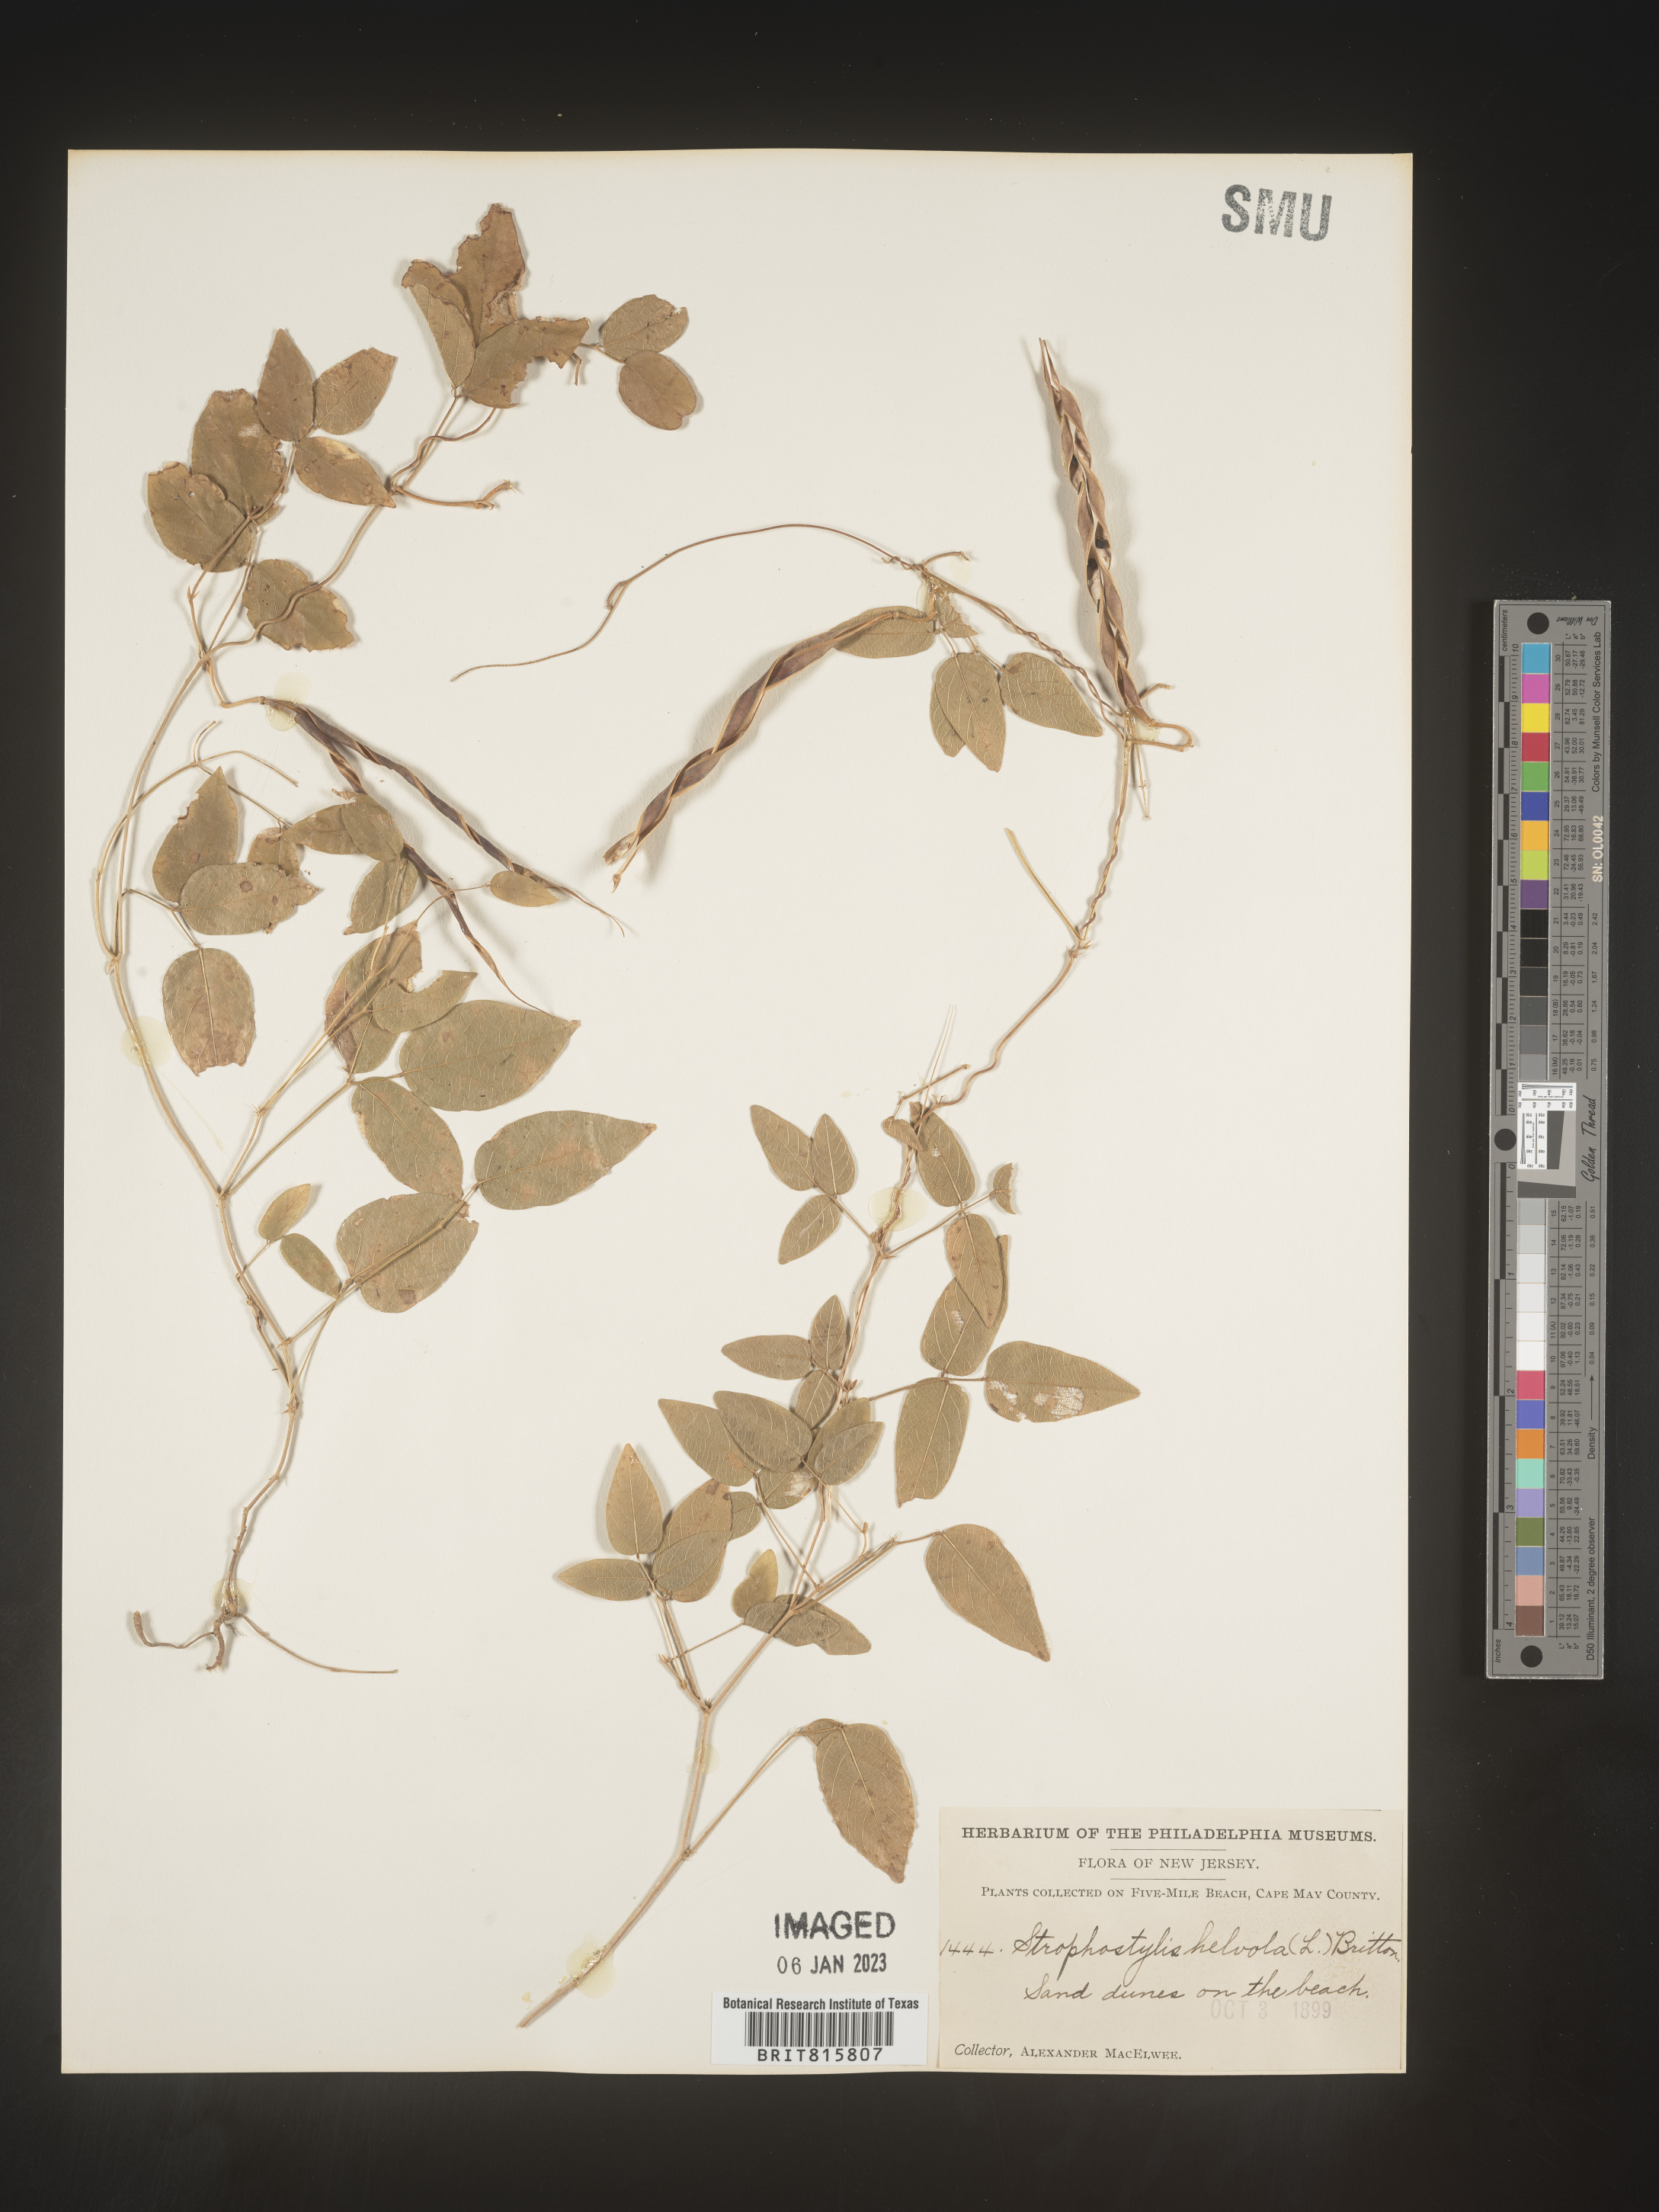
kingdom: Plantae
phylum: Tracheophyta
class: Magnoliopsida
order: Fabales
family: Fabaceae
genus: Centrosema
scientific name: Centrosema virginianum
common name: Butterfly-pea
